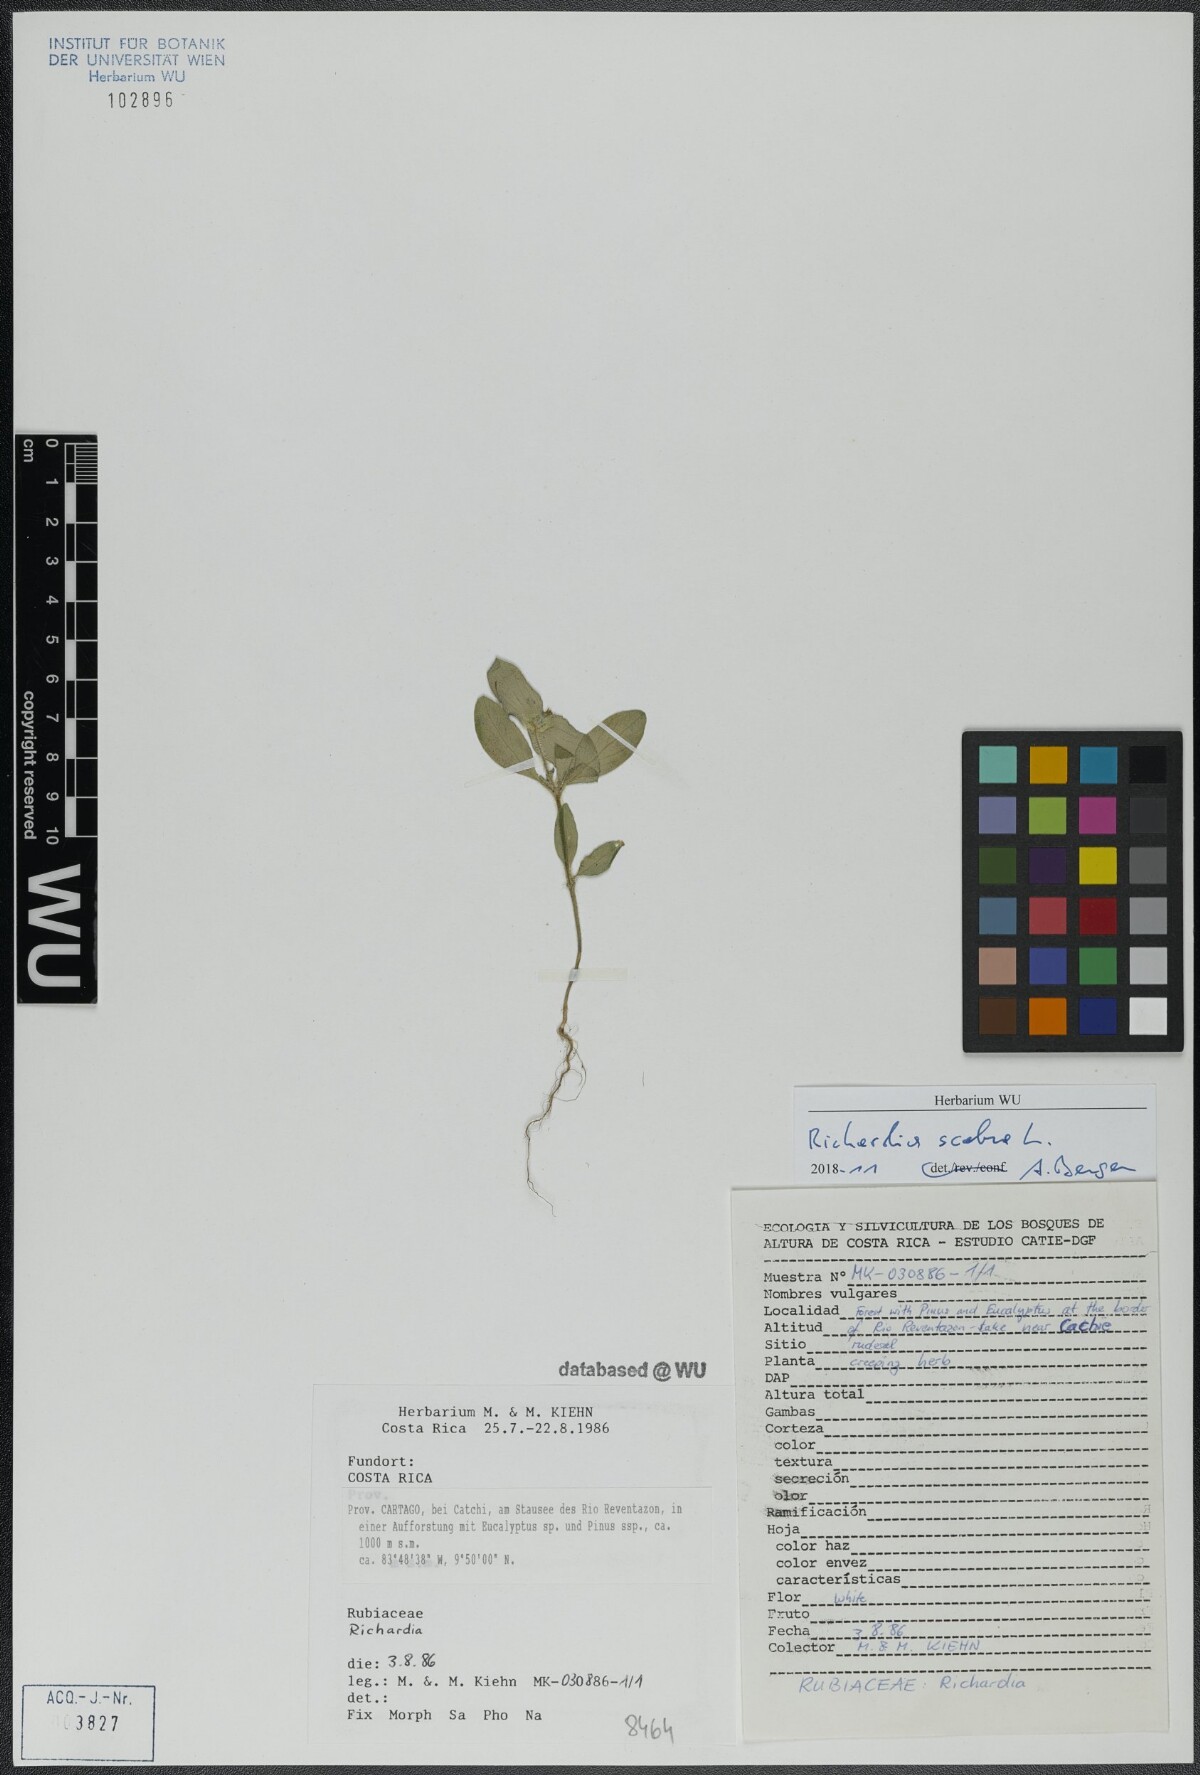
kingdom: Plantae
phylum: Tracheophyta
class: Magnoliopsida
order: Gentianales
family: Rubiaceae
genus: Richardia
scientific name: Richardia scabra
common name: Rough mexican clover
